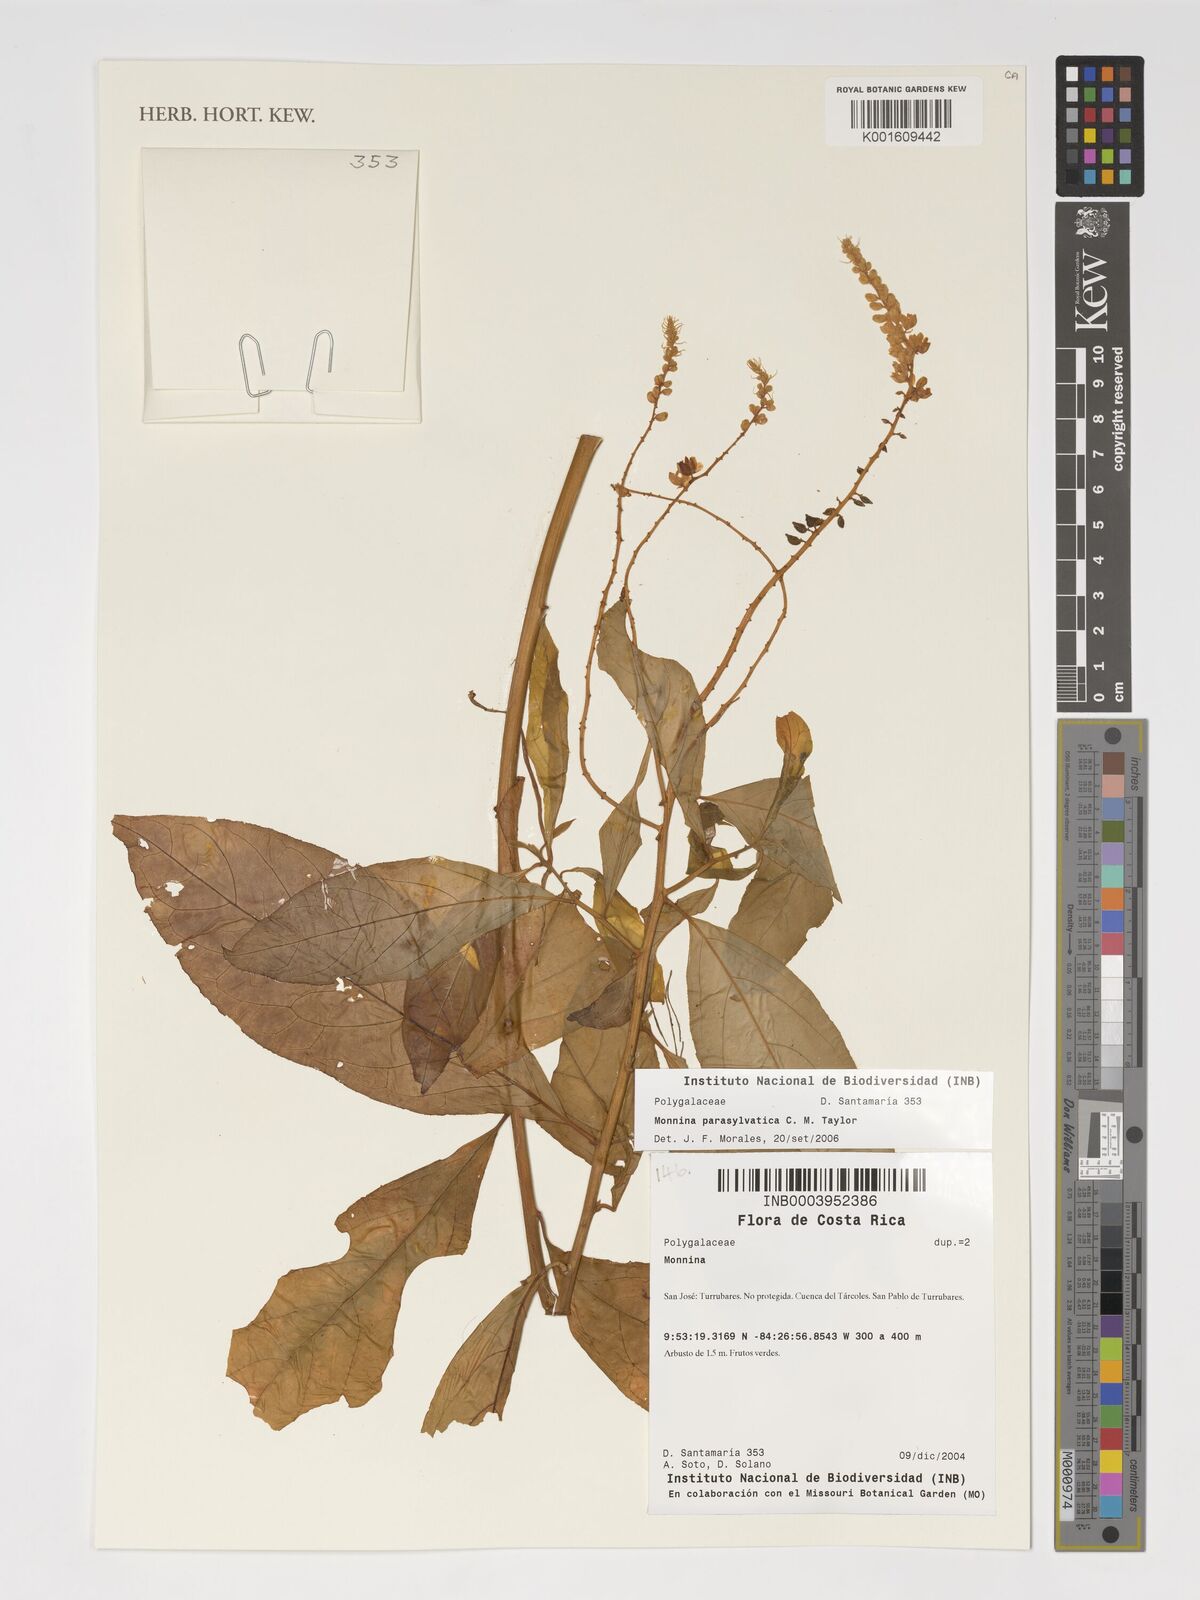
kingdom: Plantae
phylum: Tracheophyta
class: Magnoliopsida
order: Fabales
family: Polygalaceae
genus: Monnina
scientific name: Monnina parasylvatica
